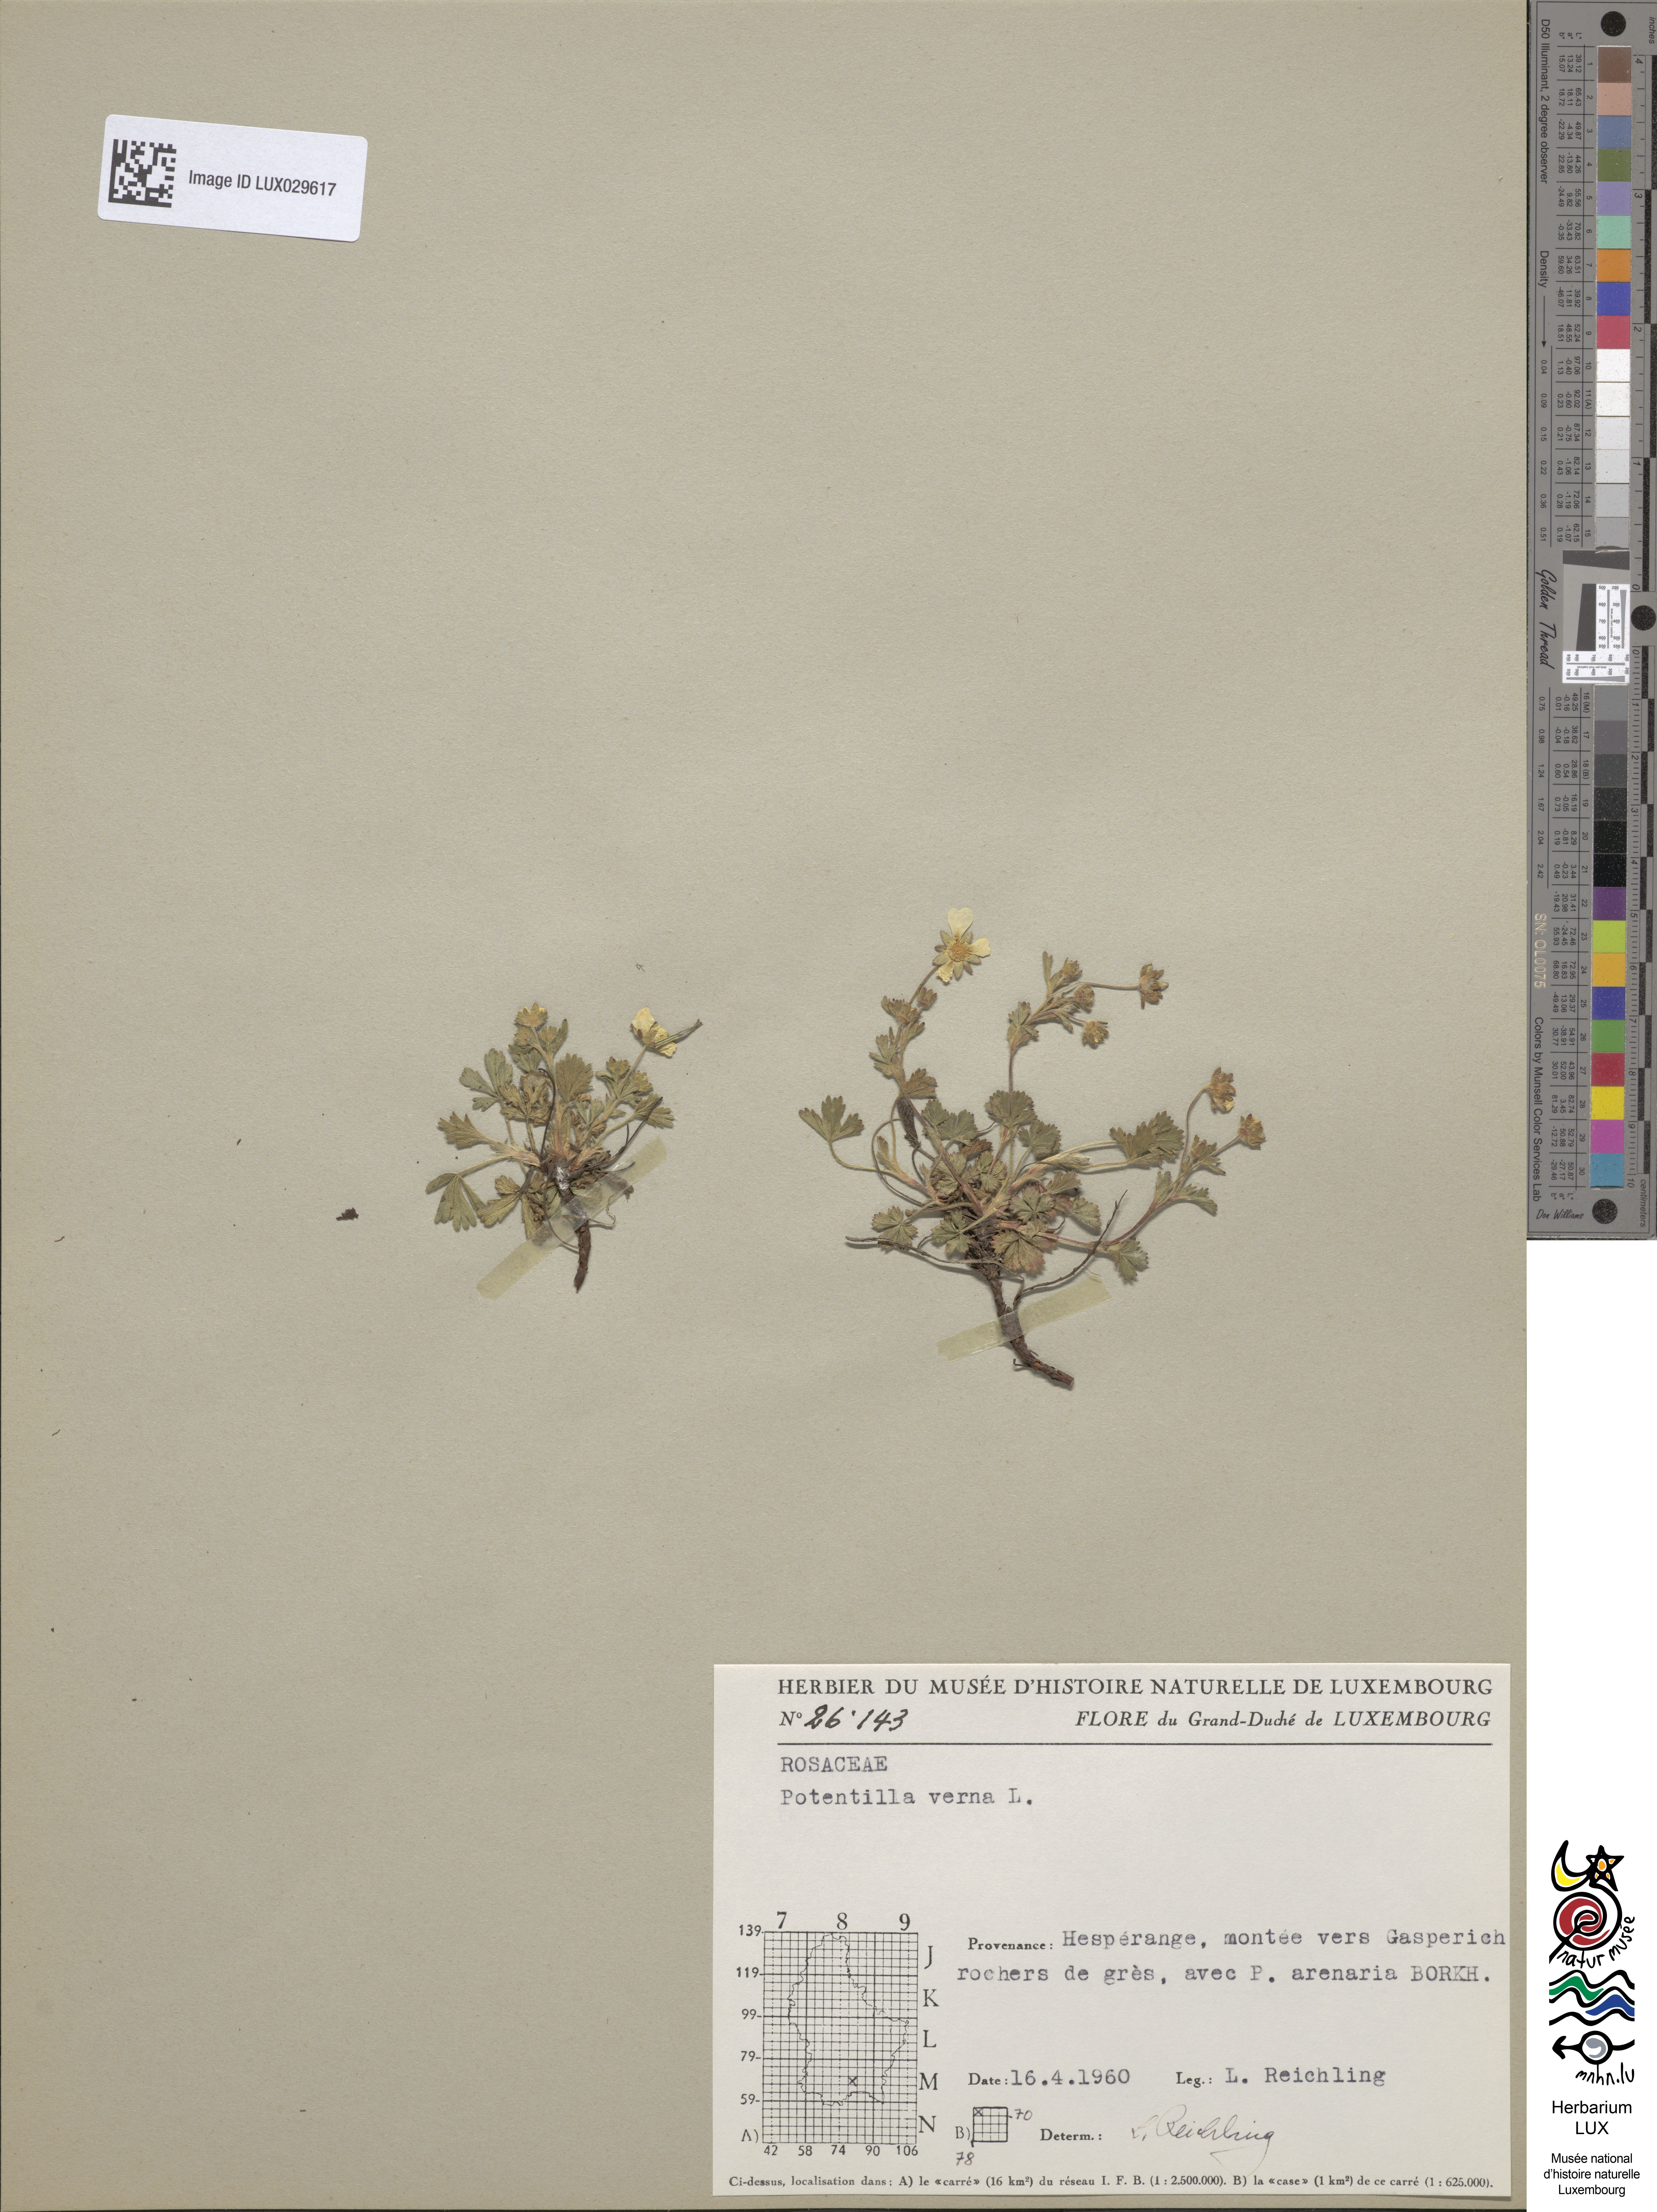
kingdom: Plantae
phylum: Tracheophyta
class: Magnoliopsida
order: Rosales
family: Rosaceae
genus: Potentilla
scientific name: Potentilla verna
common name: Spring cinquefoil
